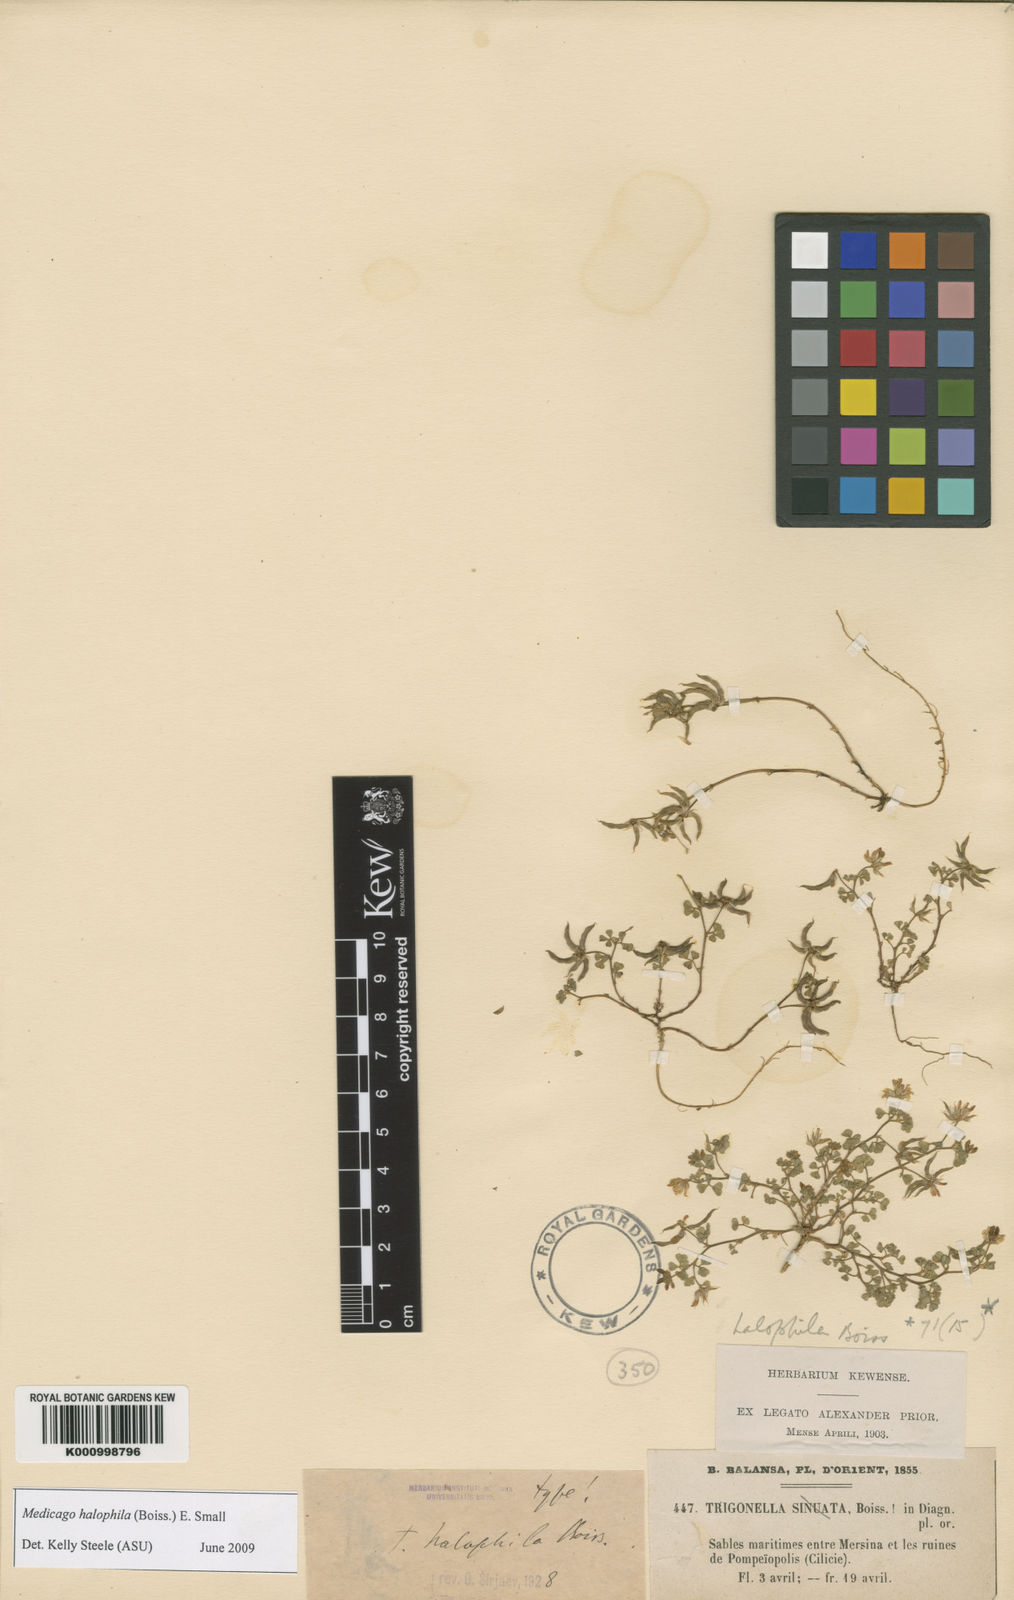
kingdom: Plantae
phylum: Tracheophyta
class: Magnoliopsida
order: Fabales
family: Fabaceae
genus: Medicago
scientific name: Medicago halophila
